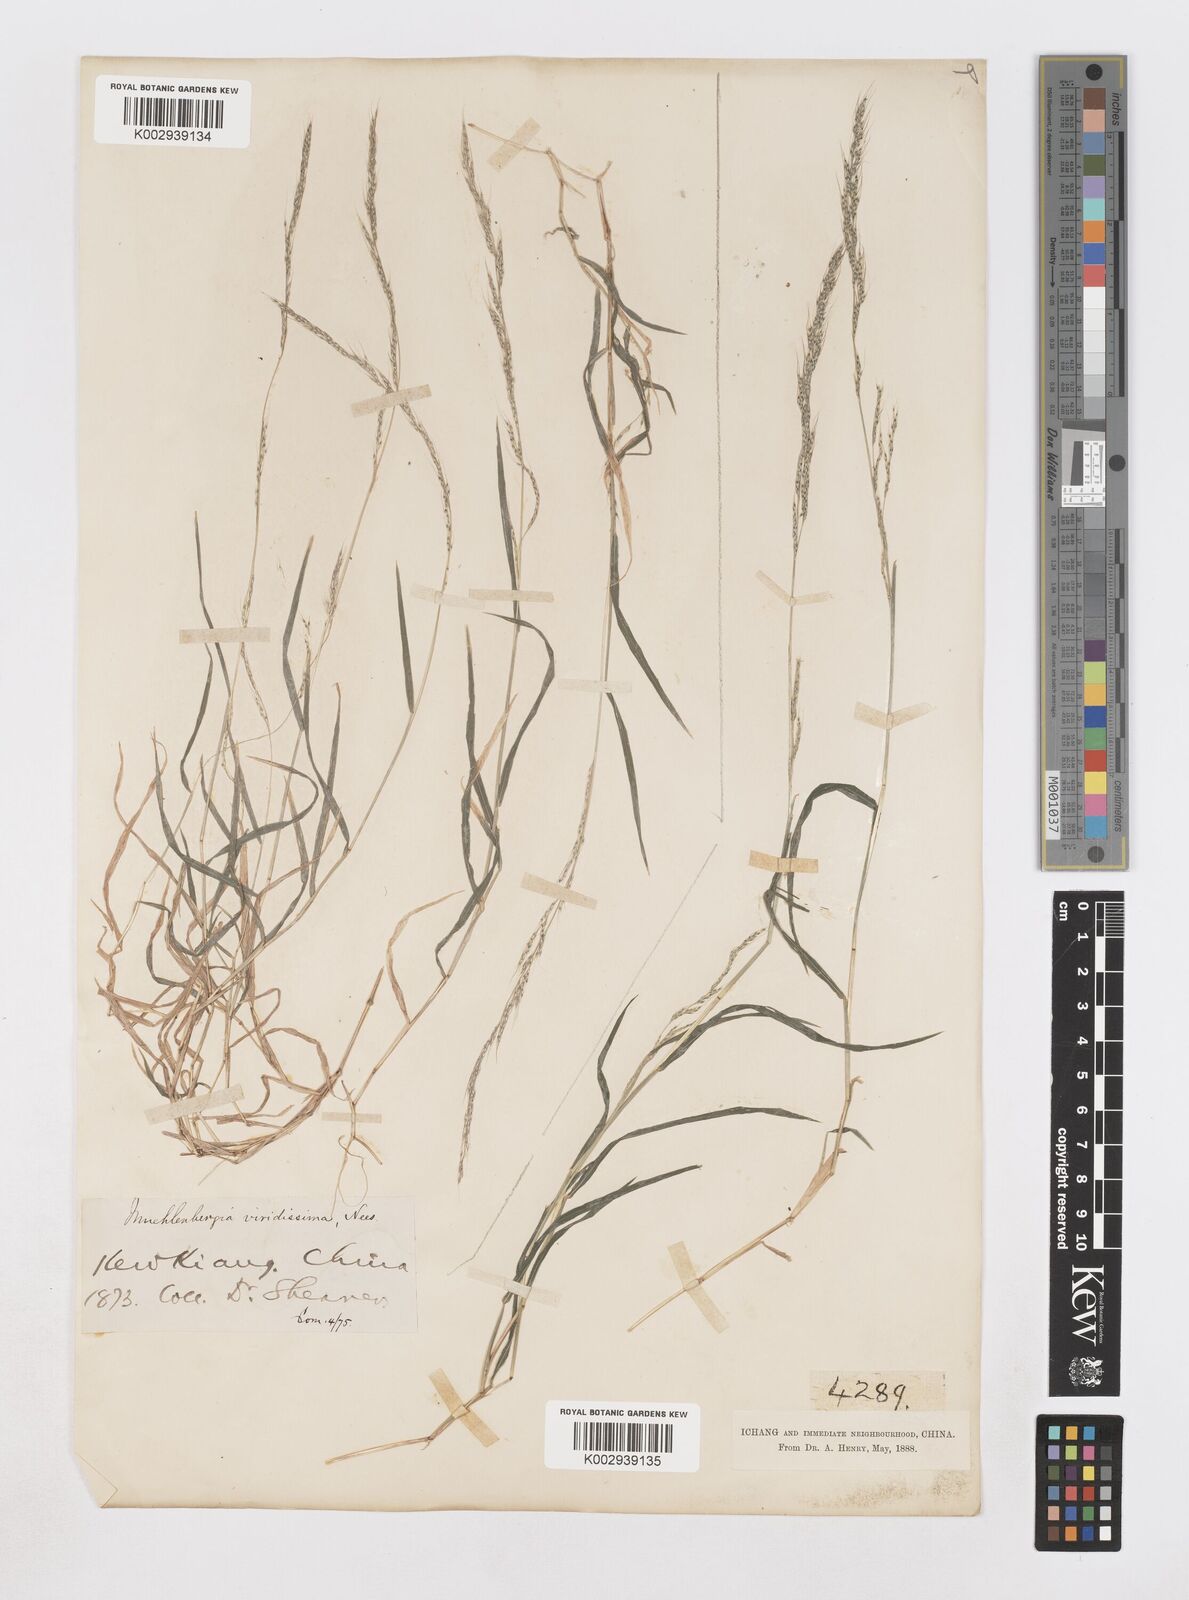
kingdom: Plantae
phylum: Tracheophyta
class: Liliopsida
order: Poales
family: Poaceae
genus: Muhlenbergia
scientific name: Muhlenbergia ramosa
